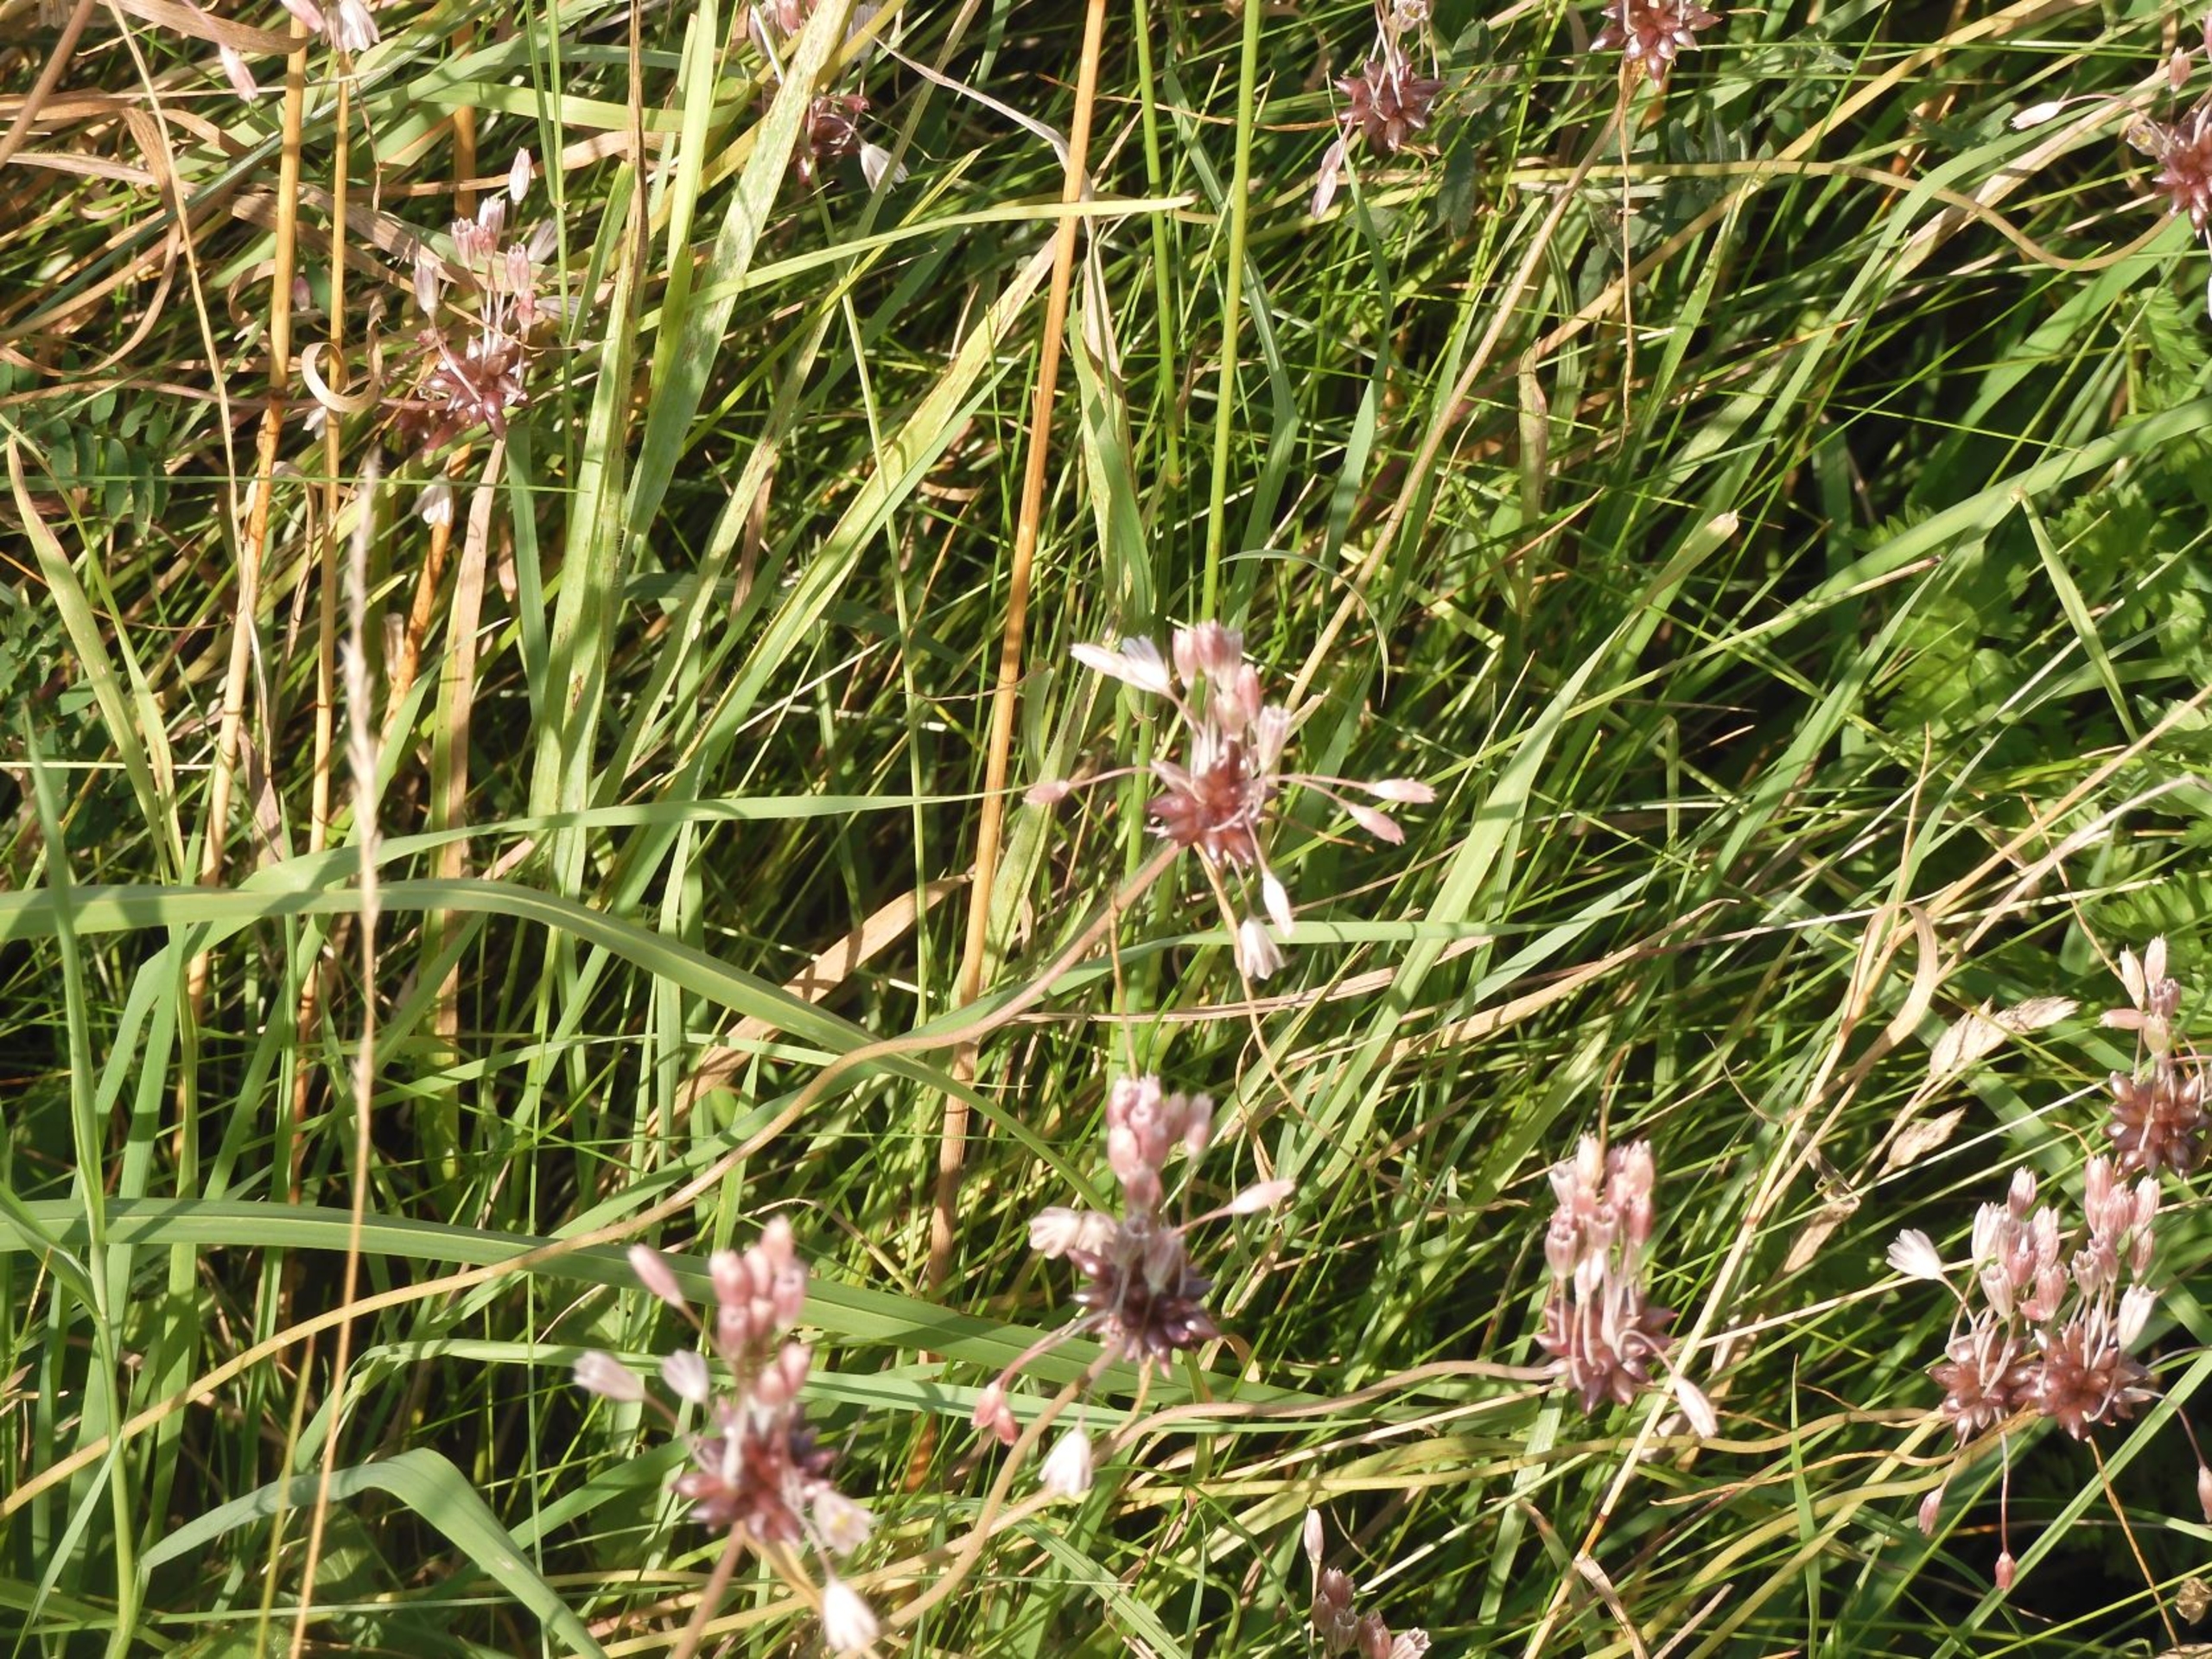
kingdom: Plantae
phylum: Tracheophyta
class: Liliopsida
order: Asparagales
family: Amaryllidaceae
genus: Allium
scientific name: Allium oleraceum
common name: Vild løg
